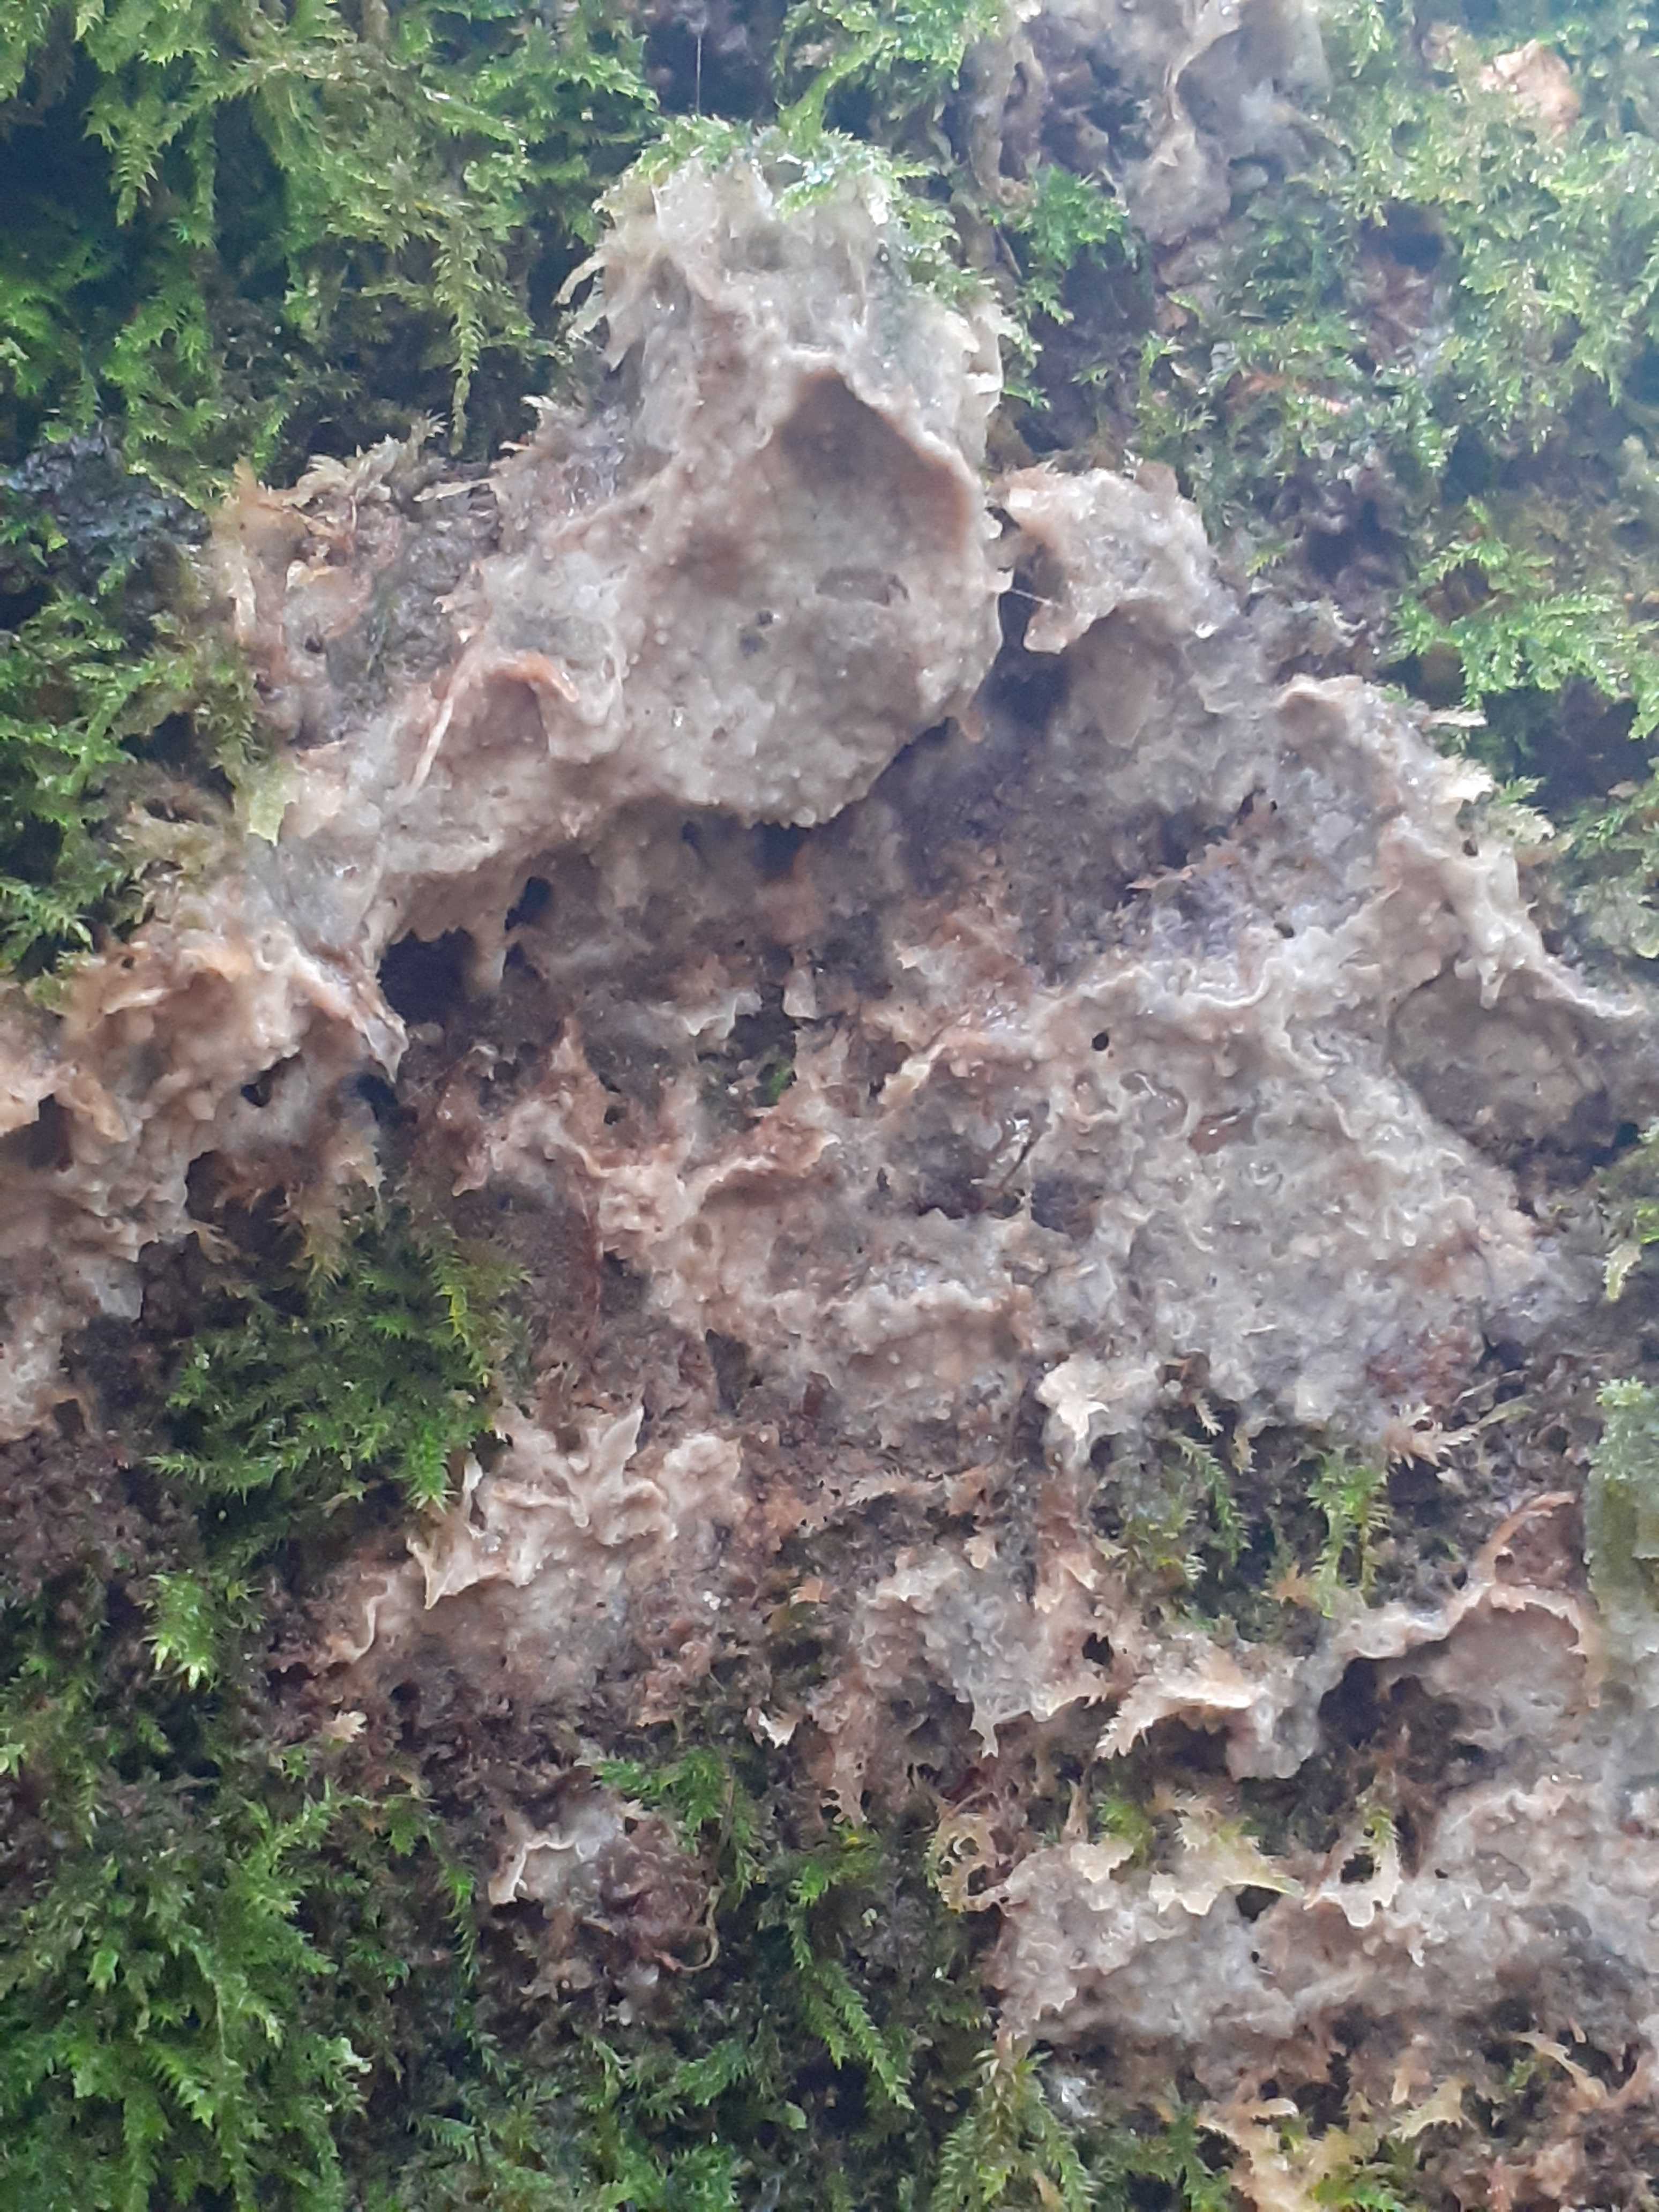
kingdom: Fungi
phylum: Basidiomycota
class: Agaricomycetes
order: Polyporales
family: Phanerochaetaceae
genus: Phlebiopsis
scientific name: Phlebiopsis gigantea
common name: kæmpebarksvamp
